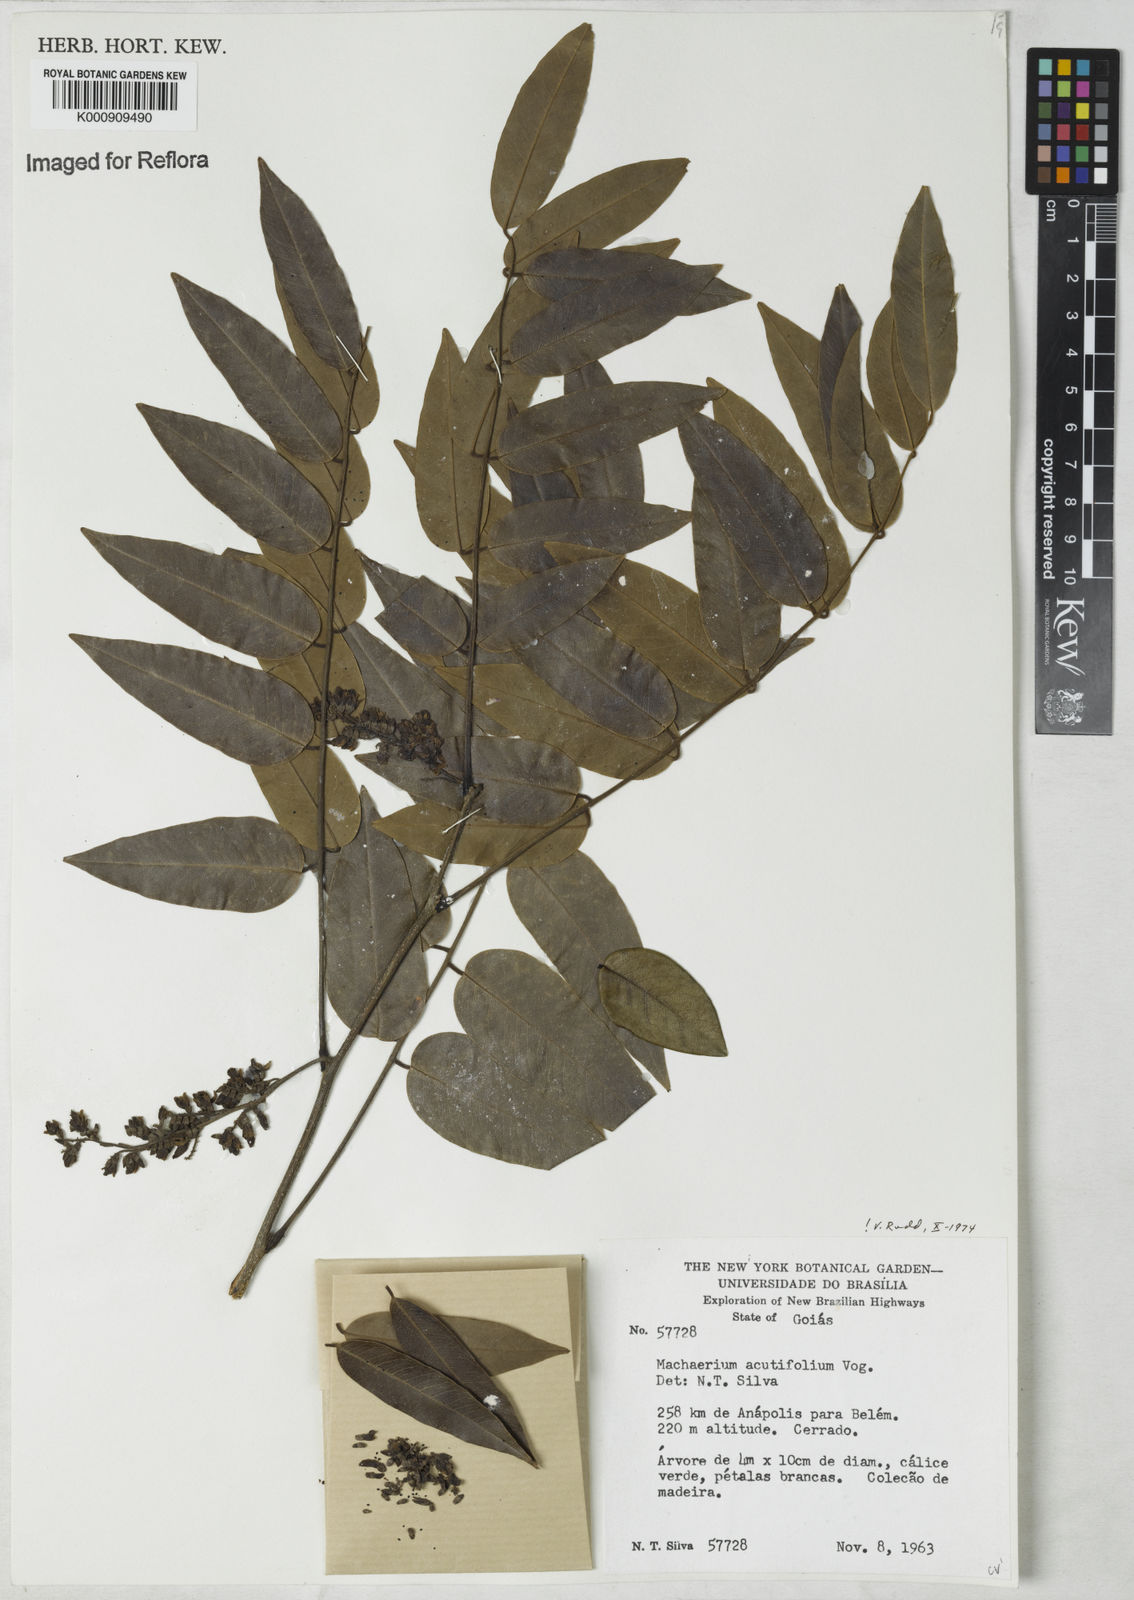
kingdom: Plantae
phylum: Tracheophyta
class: Magnoliopsida
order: Fabales
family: Fabaceae
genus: Machaerium
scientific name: Machaerium acutifolium
